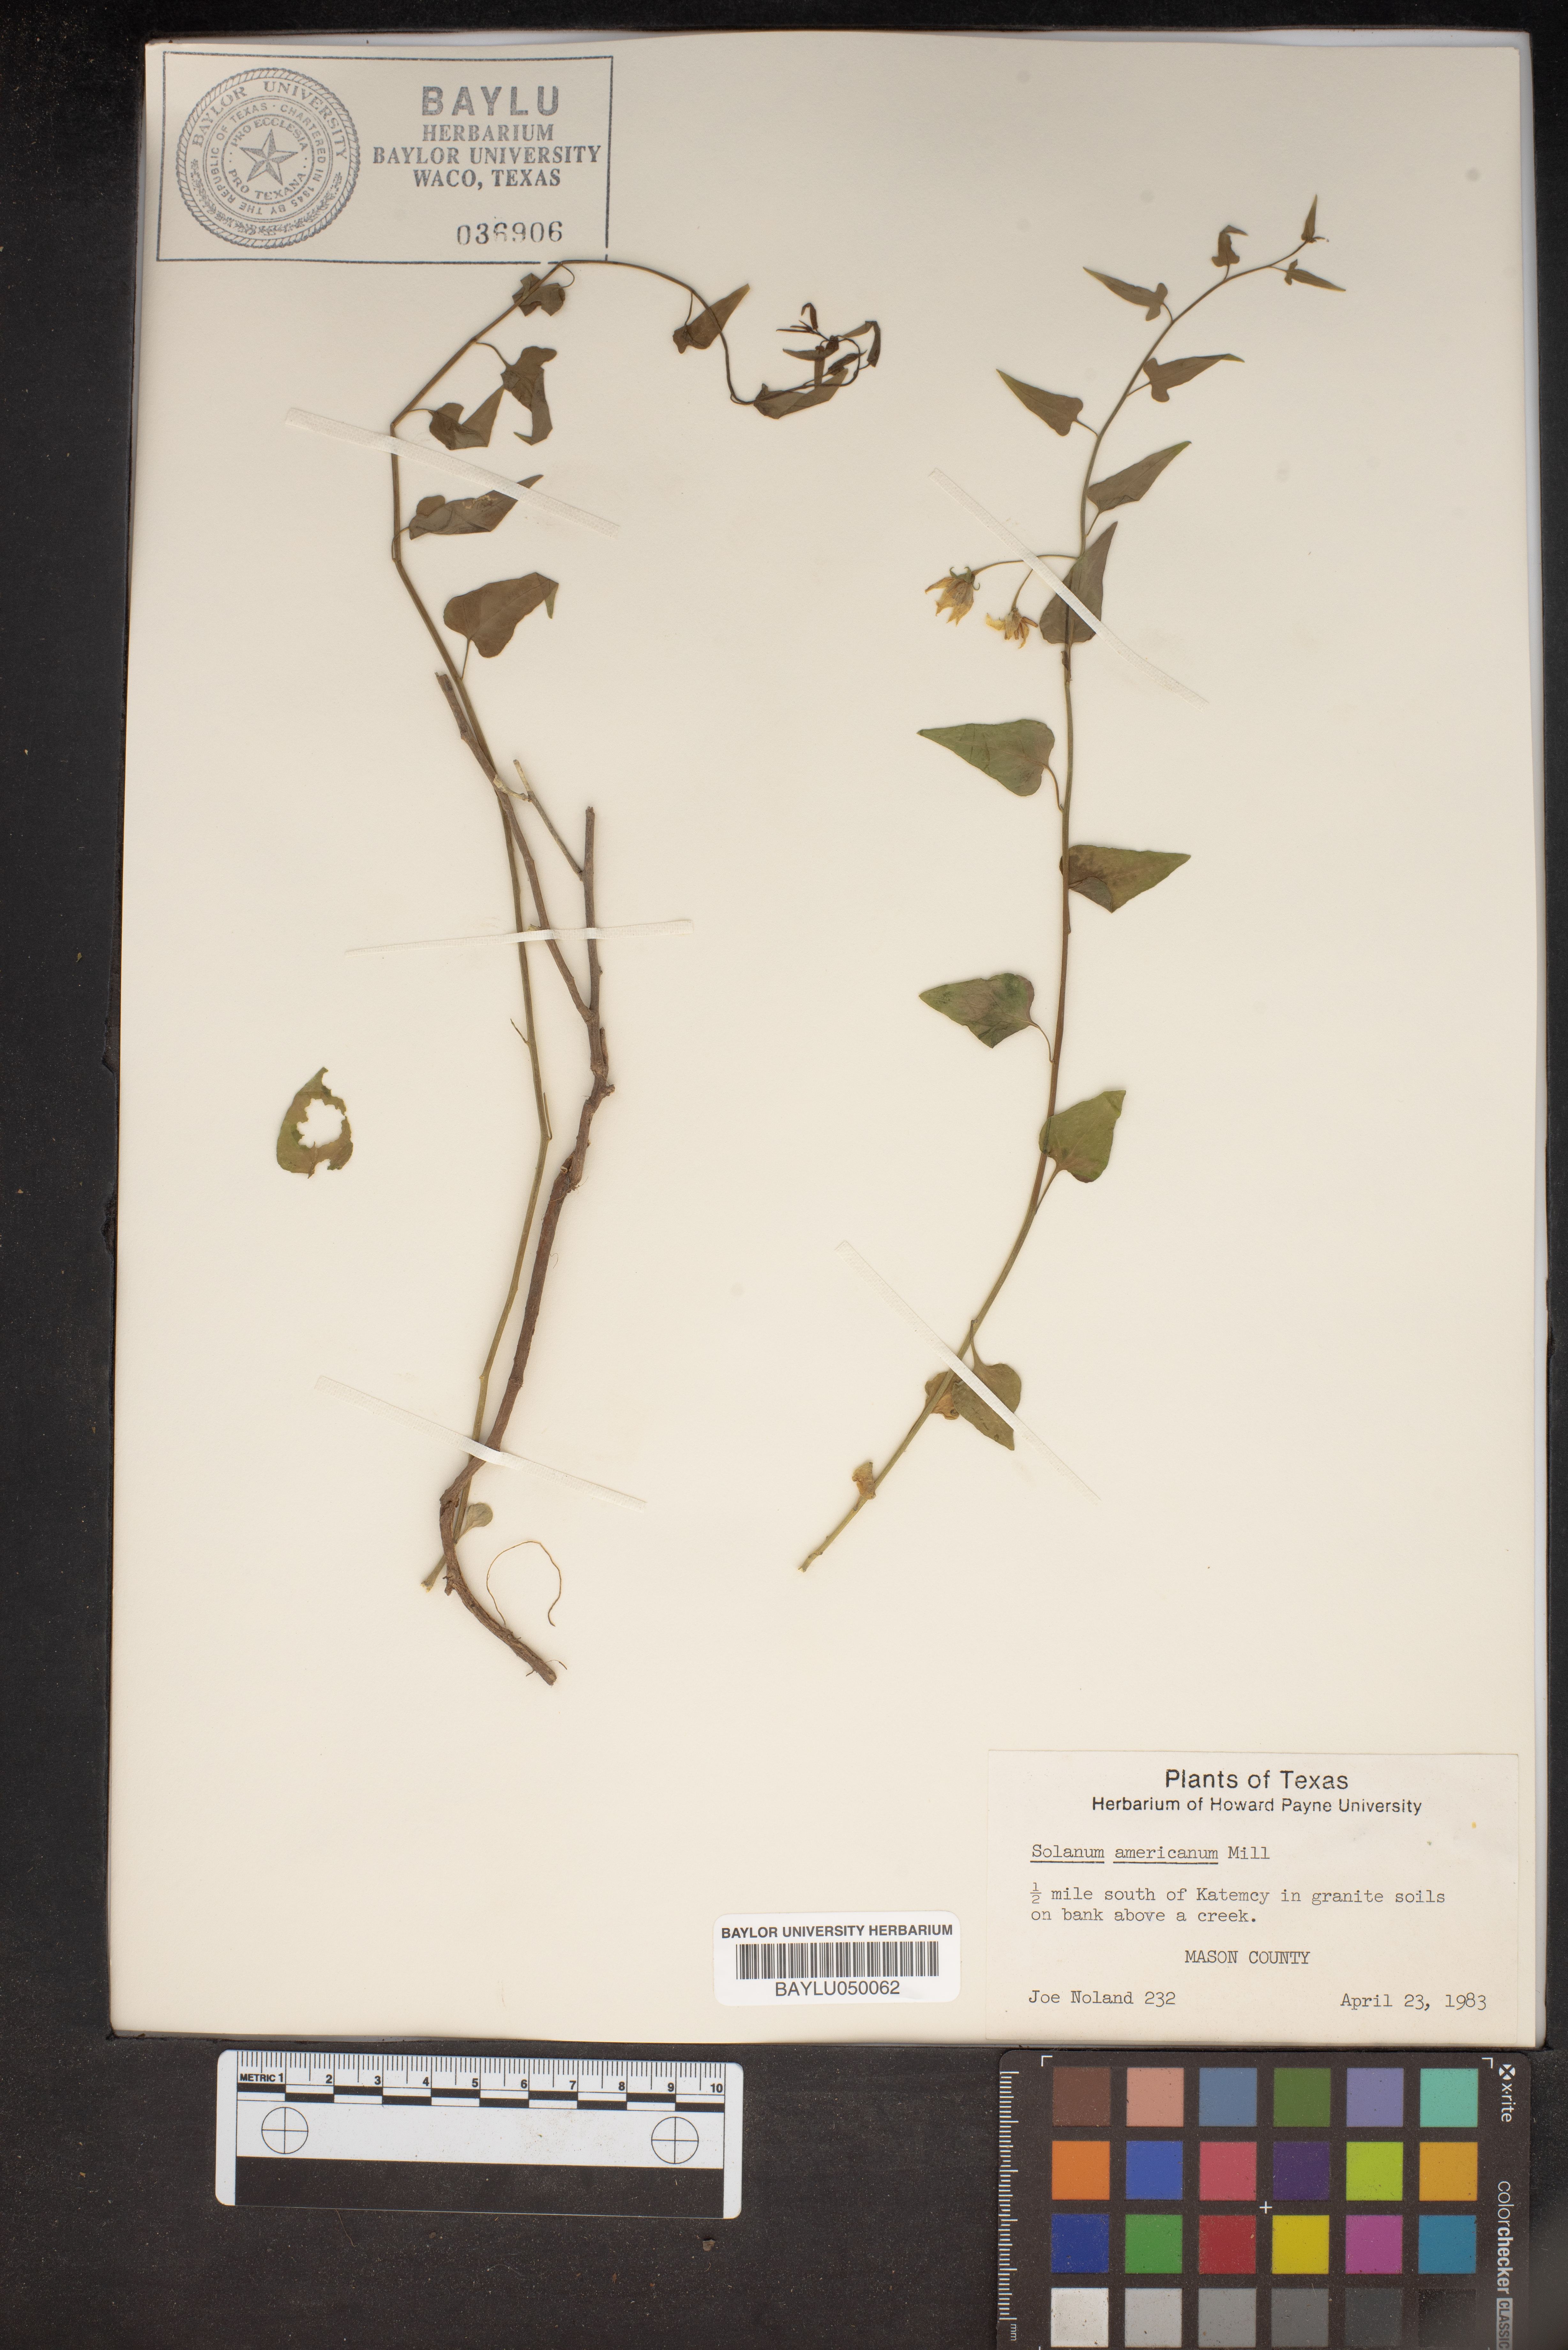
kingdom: Plantae
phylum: Tracheophyta
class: Magnoliopsida
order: Solanales
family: Solanaceae
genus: Solanum
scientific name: Solanum americanum
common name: American black nightshade
